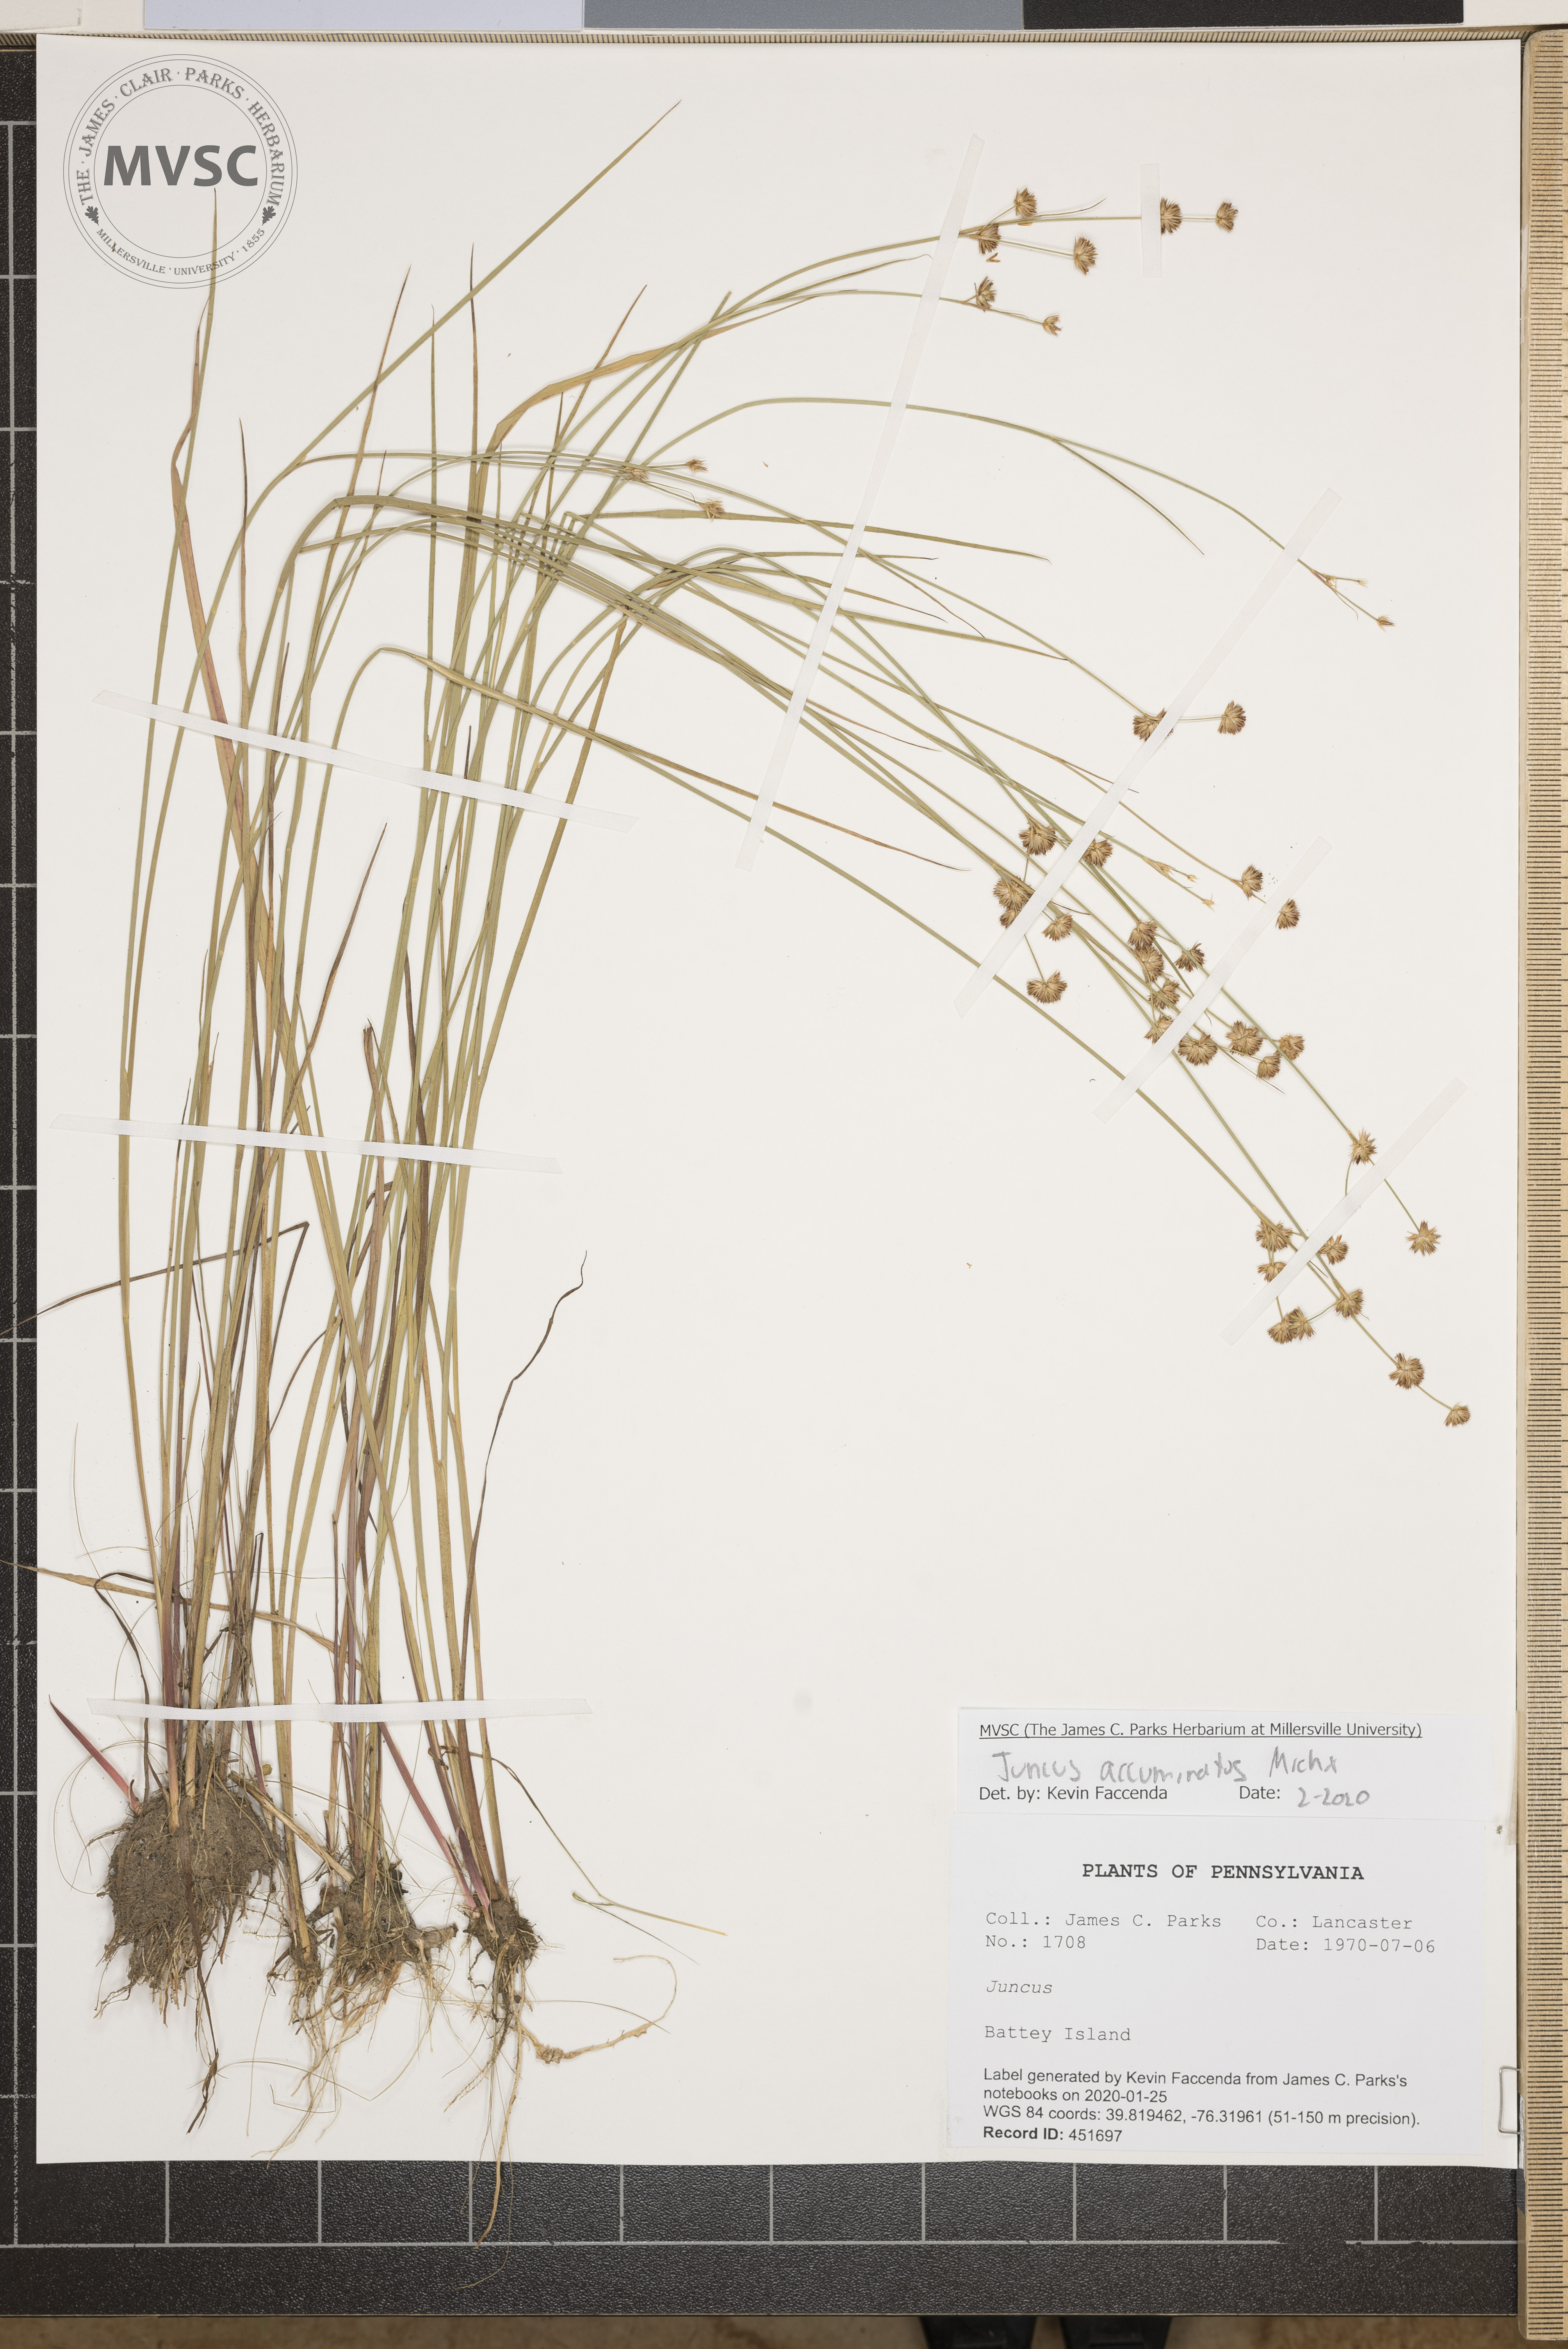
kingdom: Plantae
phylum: Tracheophyta
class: Liliopsida
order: Poales
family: Juncaceae
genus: Juncus
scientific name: Juncus acuminatus
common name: Knotty-leaved rush
